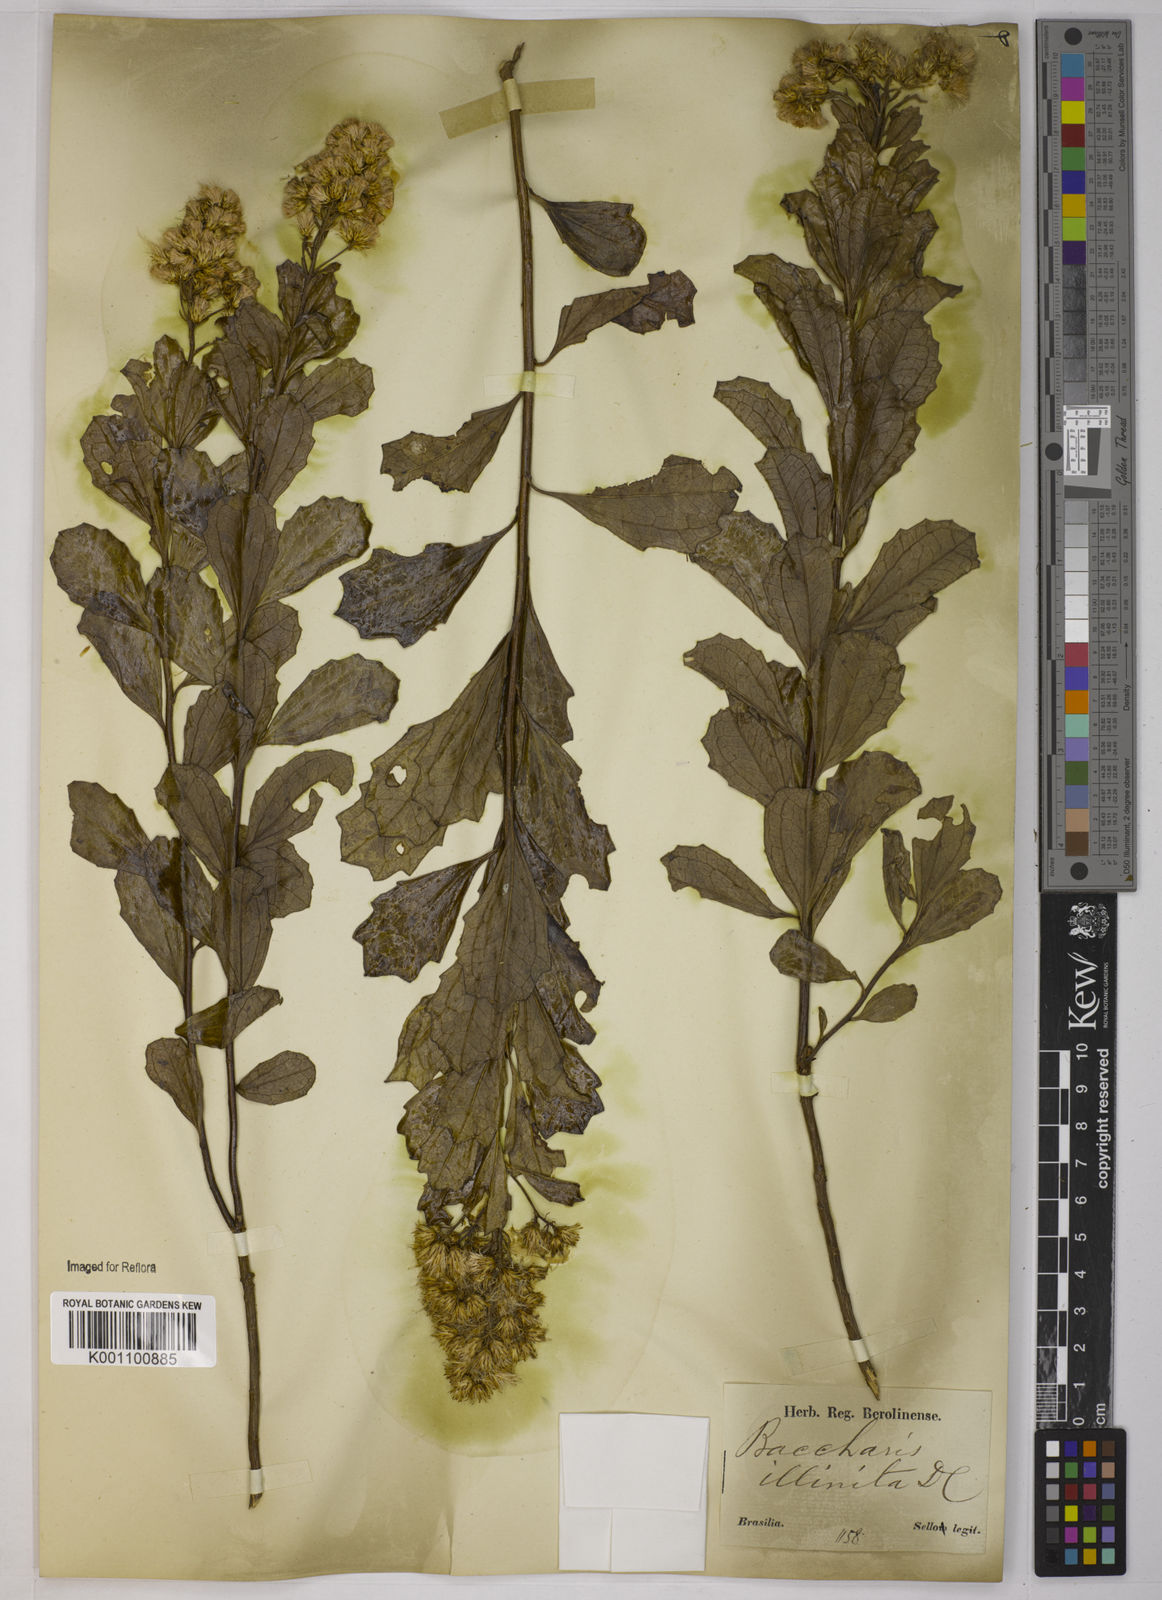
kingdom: Plantae
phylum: Tracheophyta
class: Magnoliopsida
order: Asterales
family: Asteraceae
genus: Baccharis
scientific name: Baccharis tridentata
